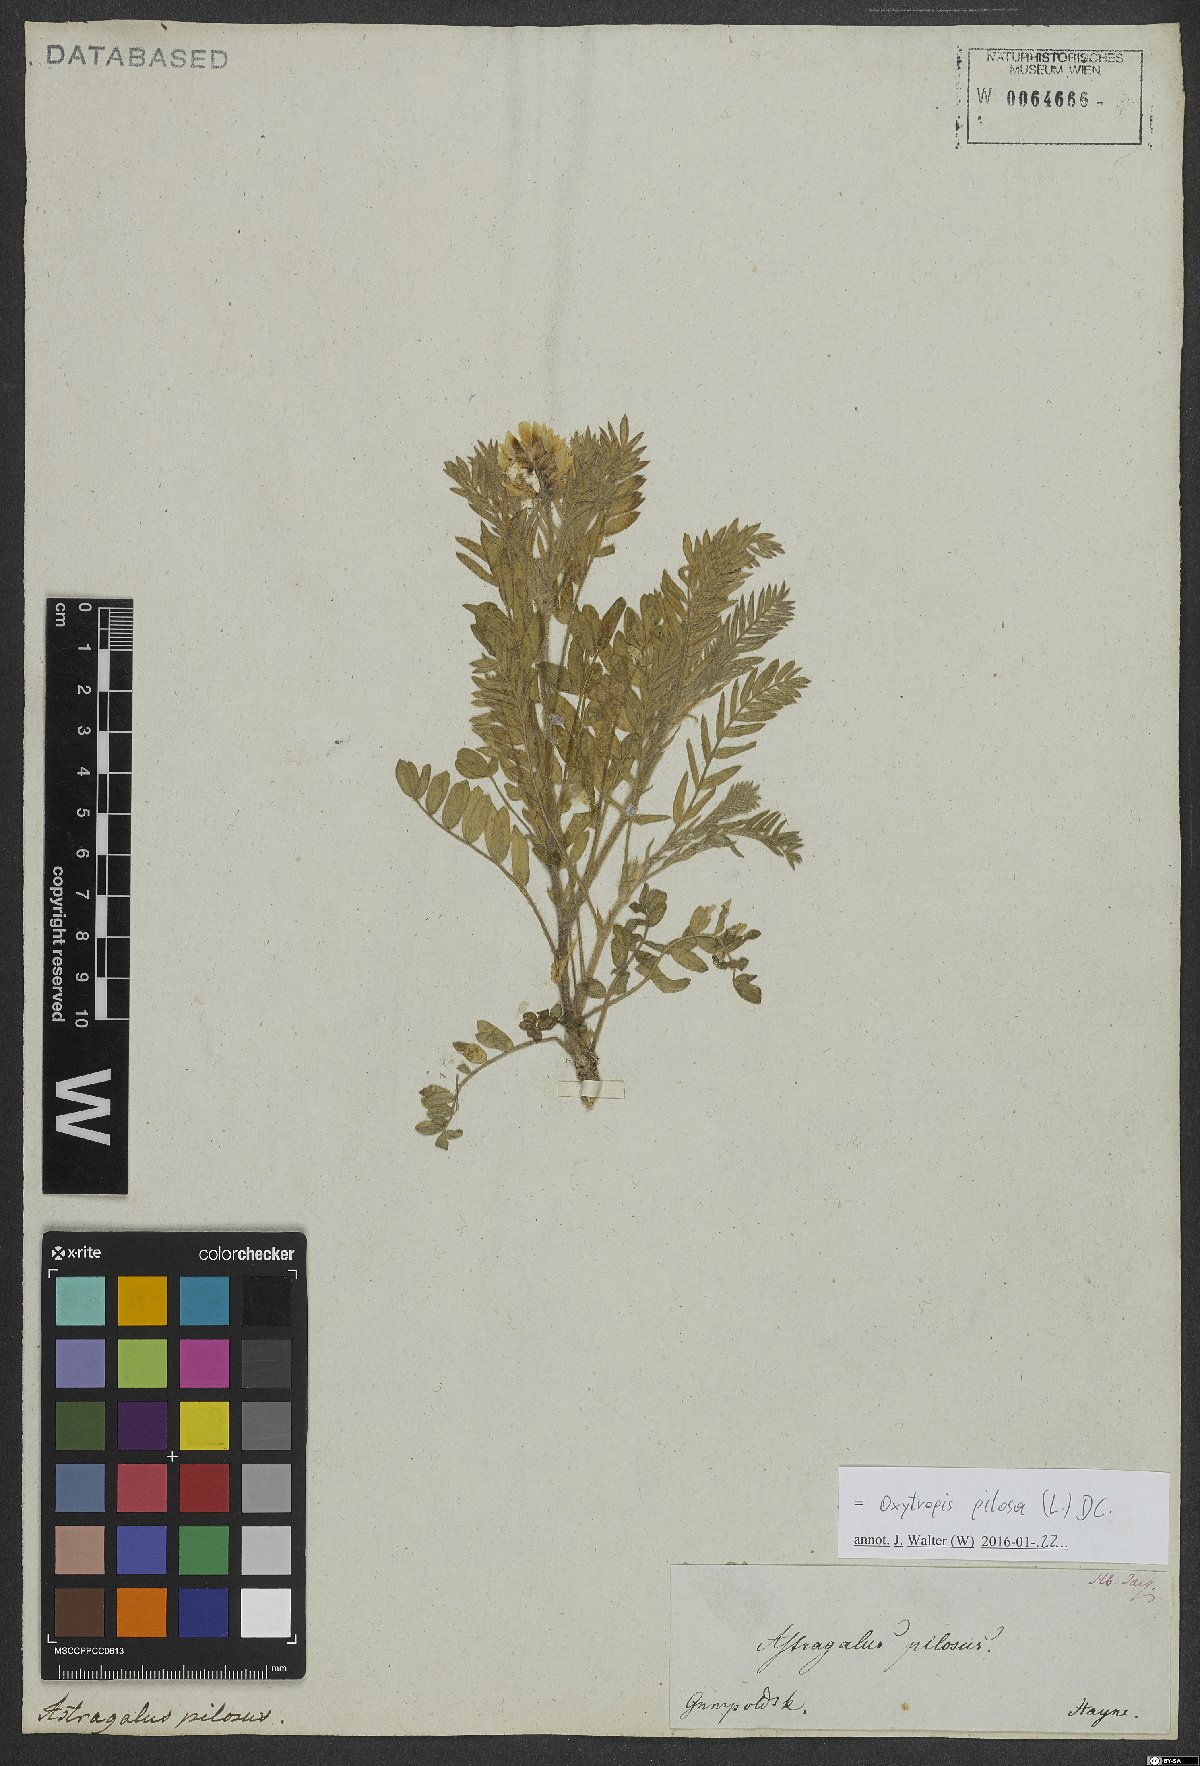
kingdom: Plantae
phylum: Tracheophyta
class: Magnoliopsida
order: Fabales
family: Fabaceae
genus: Oxytropis
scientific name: Oxytropis pilosa
